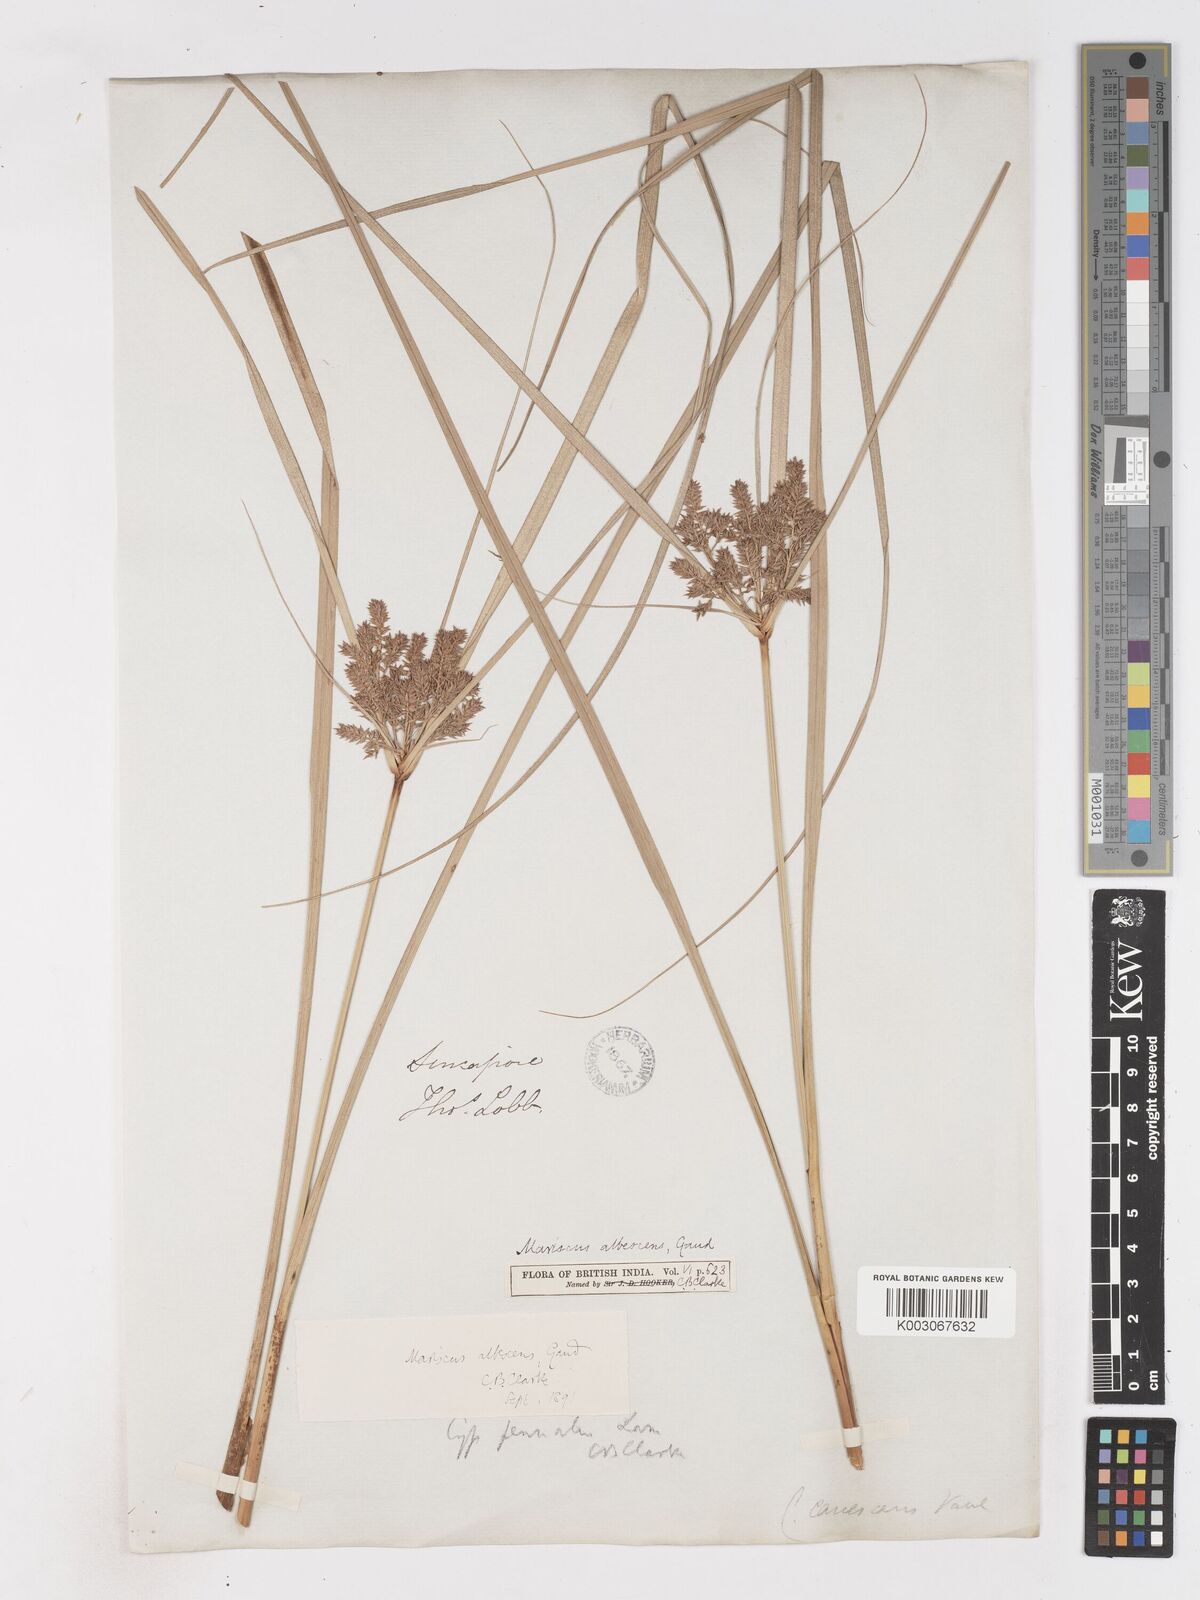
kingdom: Plantae
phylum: Tracheophyta
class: Liliopsida
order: Poales
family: Cyperaceae
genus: Cyperus
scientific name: Cyperus javanicus
